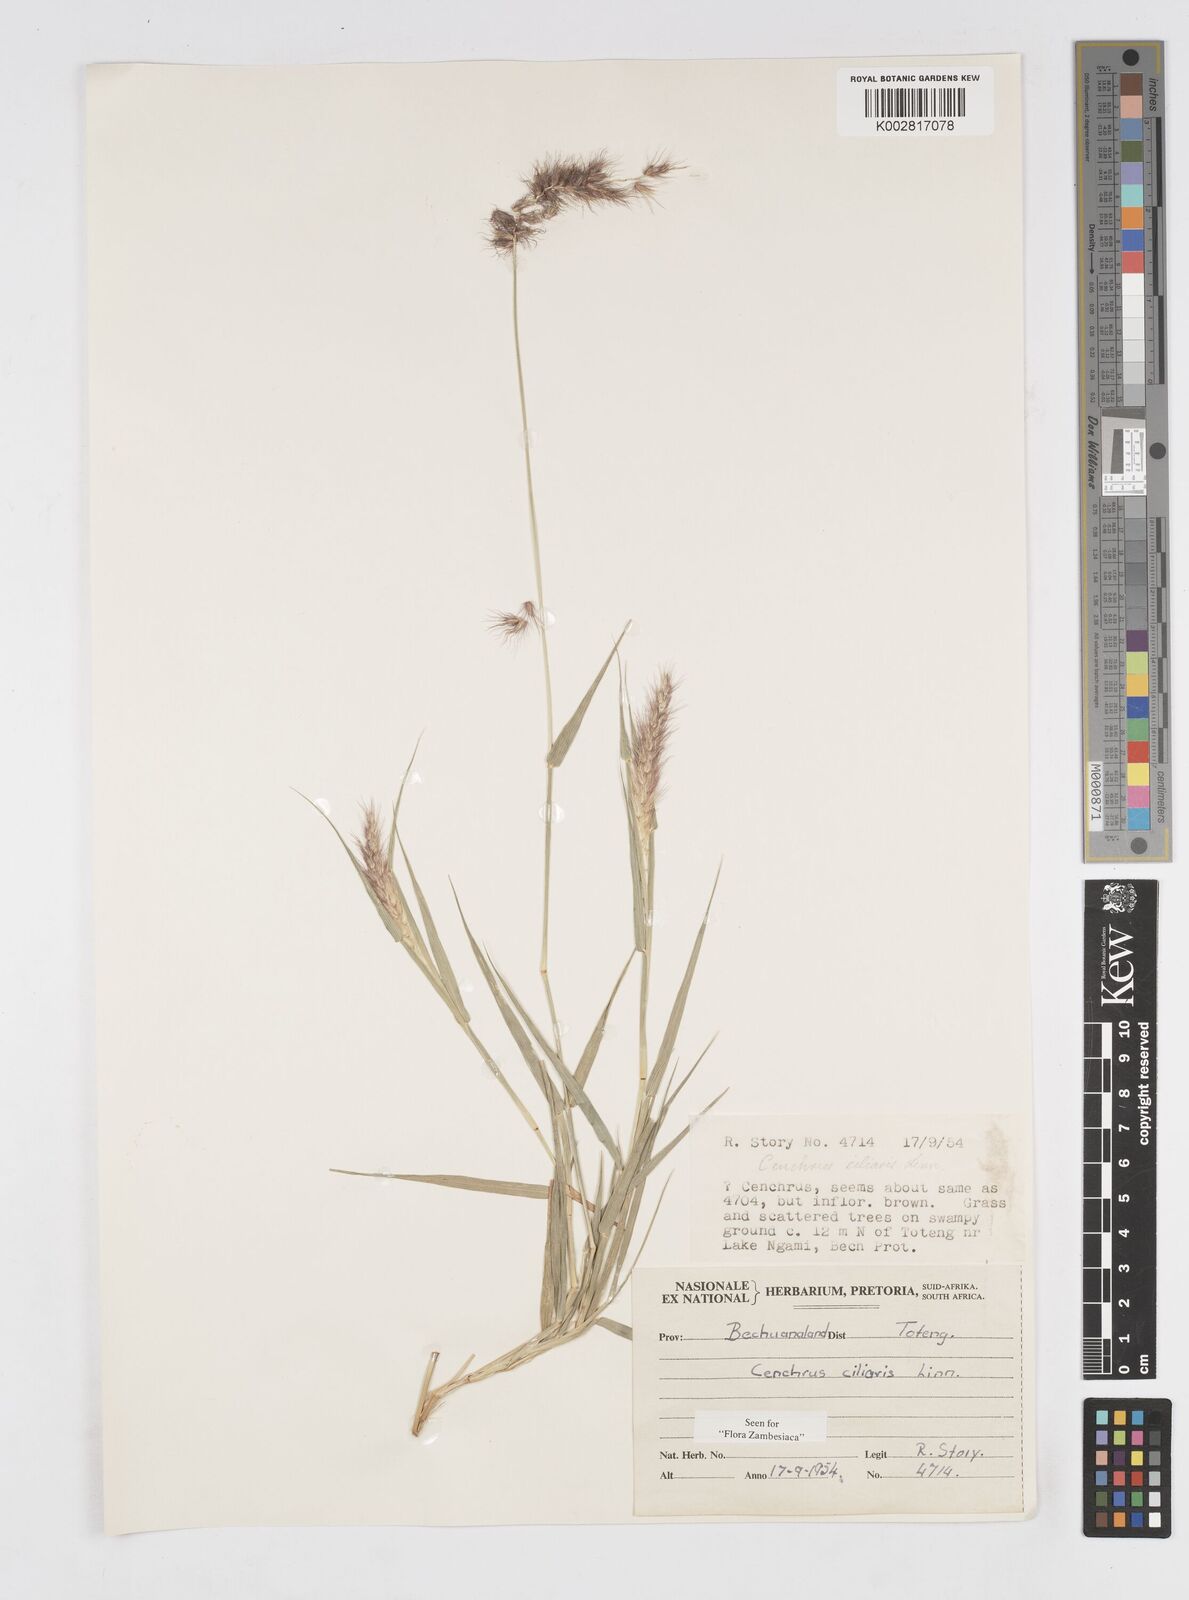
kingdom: Plantae
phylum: Tracheophyta
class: Liliopsida
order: Poales
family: Poaceae
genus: Cenchrus
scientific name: Cenchrus ciliaris
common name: Buffelgrass
